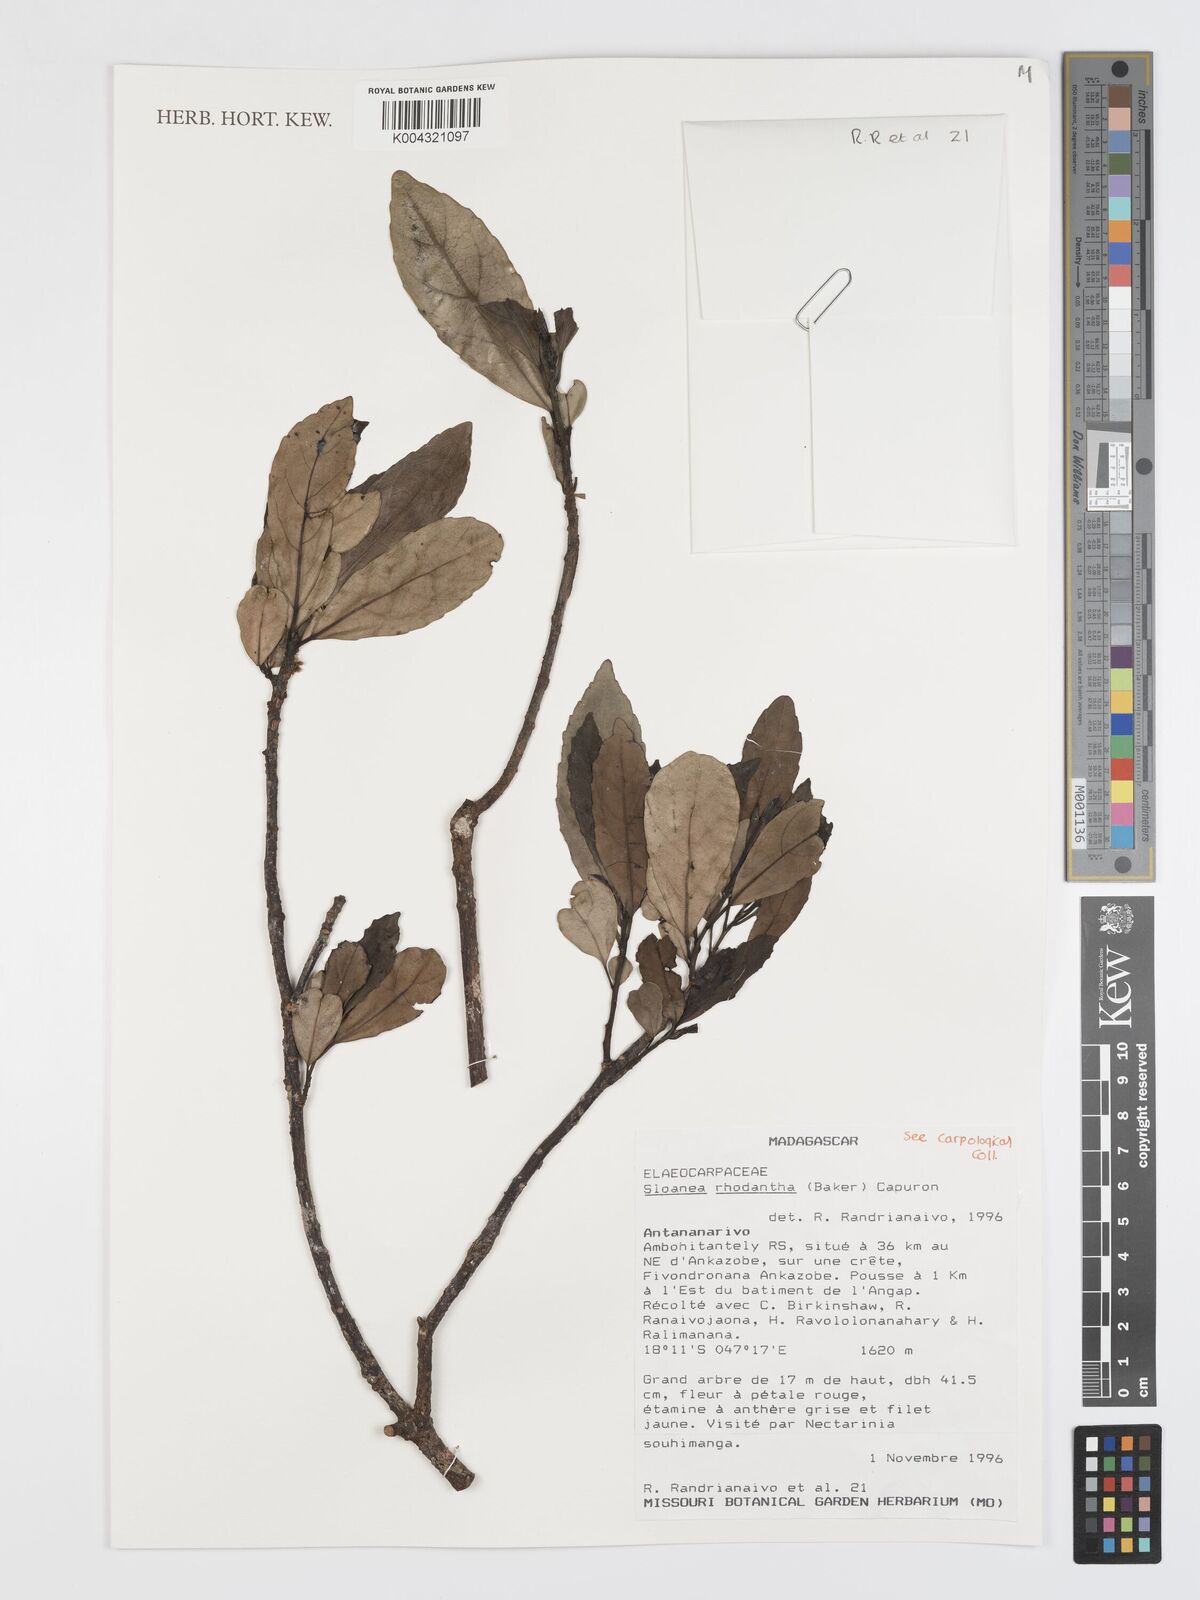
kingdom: Plantae
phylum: Tracheophyta
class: Magnoliopsida
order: Oxalidales
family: Elaeocarpaceae
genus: Sloanea
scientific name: Sloanea rhodantha
